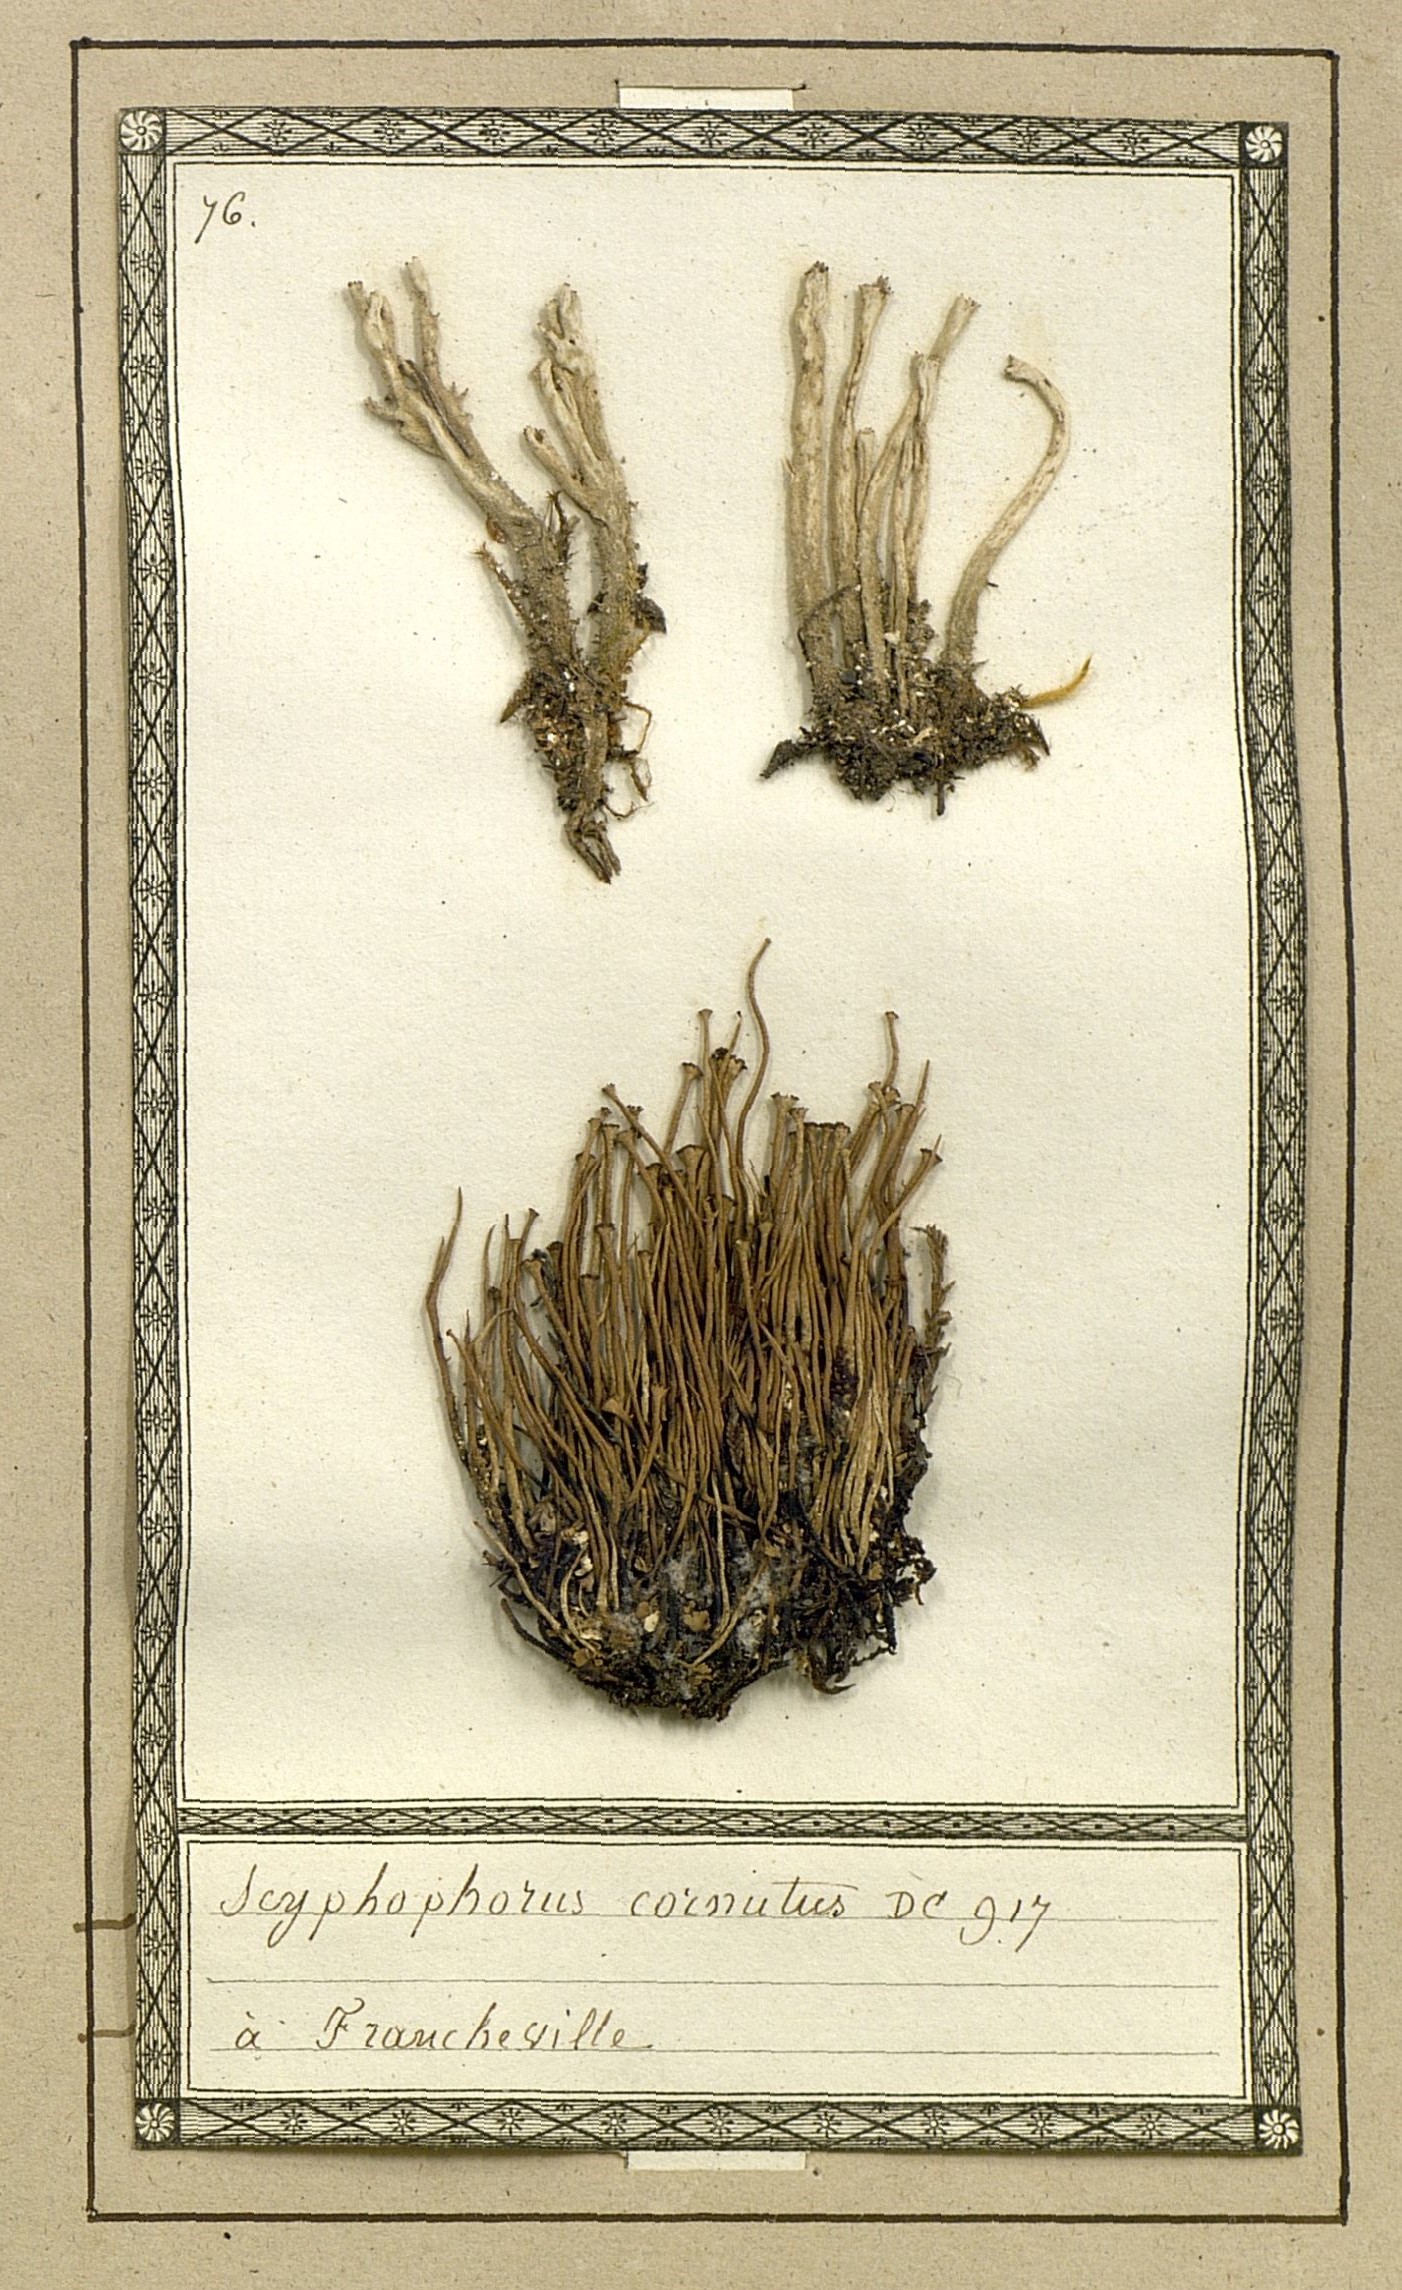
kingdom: Fungi
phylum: Ascomycota
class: Lecanoromycetes
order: Lecanorales
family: Cladoniaceae
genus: Cladonia
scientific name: Cladonia cornuta
